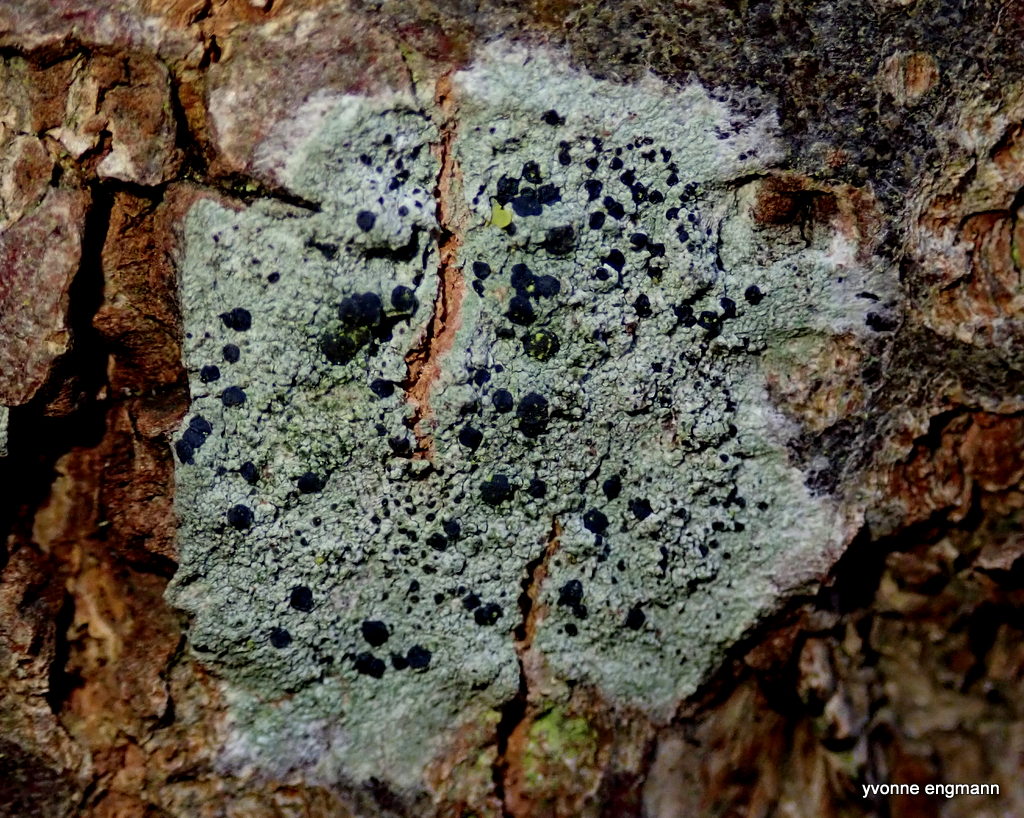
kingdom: Fungi
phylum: Ascomycota
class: Lecanoromycetes
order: Lecanorales
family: Lecanoraceae
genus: Lecidella
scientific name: Lecidella elaeochroma
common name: grågrøn skivelav
